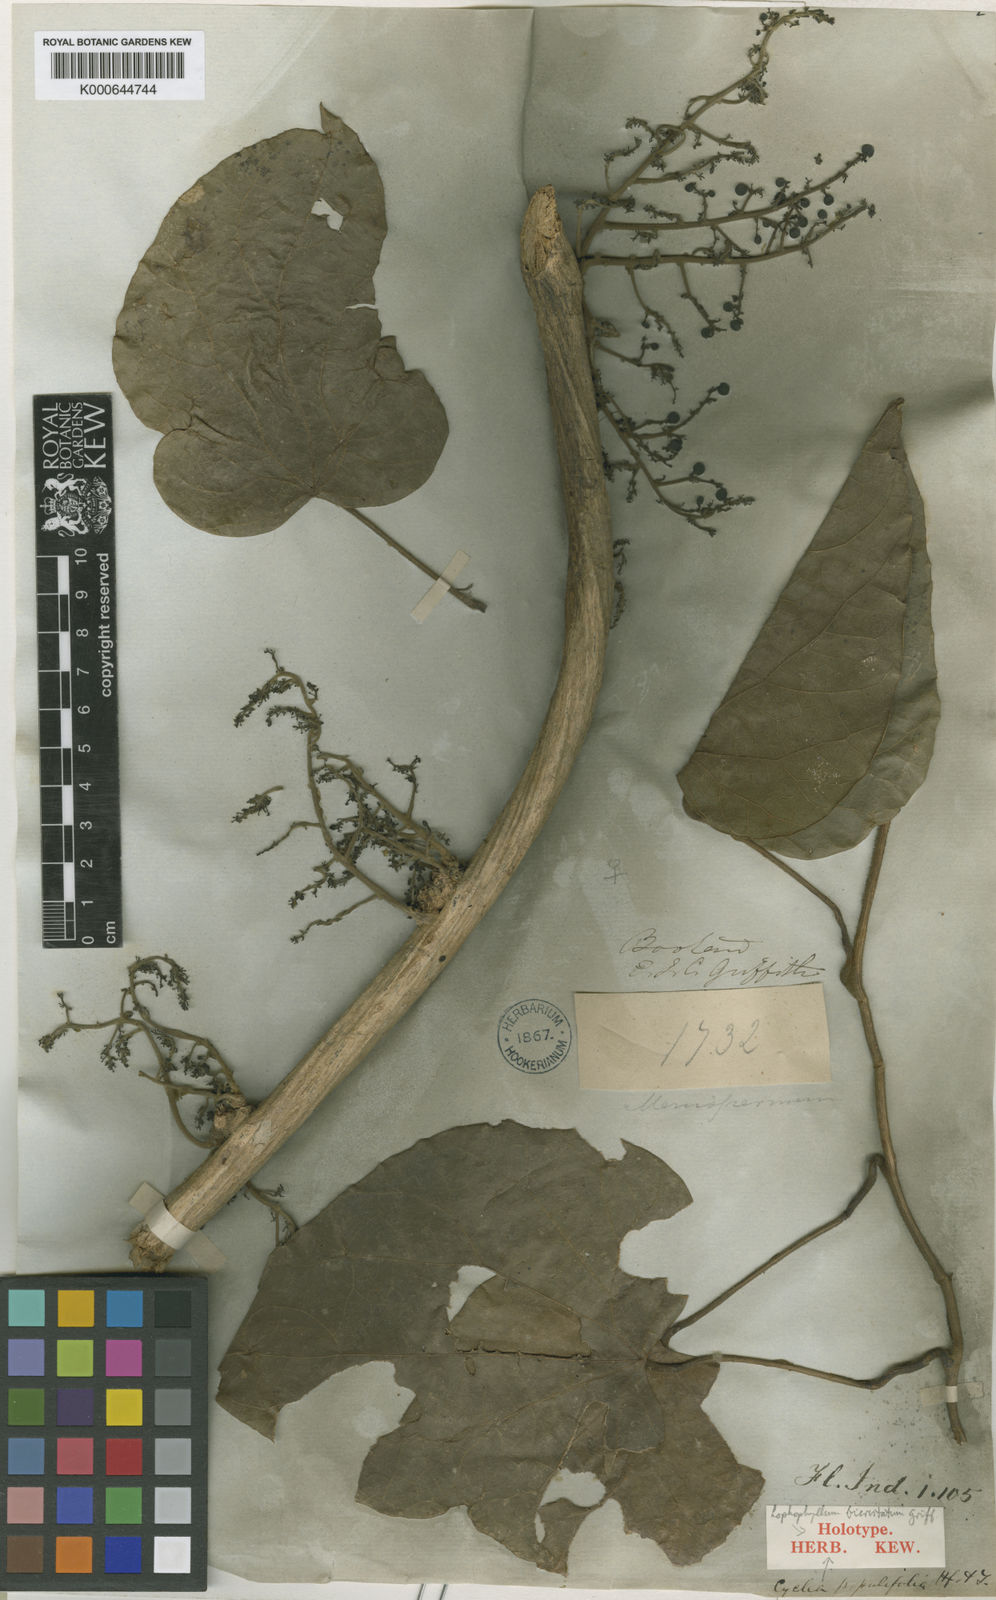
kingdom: Plantae
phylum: Tracheophyta
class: Magnoliopsida
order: Ranunculales
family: Menispermaceae
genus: Cyclea
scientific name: Cyclea bicristata
